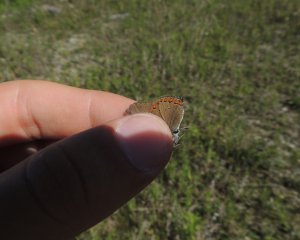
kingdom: Animalia
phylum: Arthropoda
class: Insecta
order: Lepidoptera
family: Lycaenidae
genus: Harkenclenus
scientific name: Harkenclenus titus
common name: Coral Hairstreak
